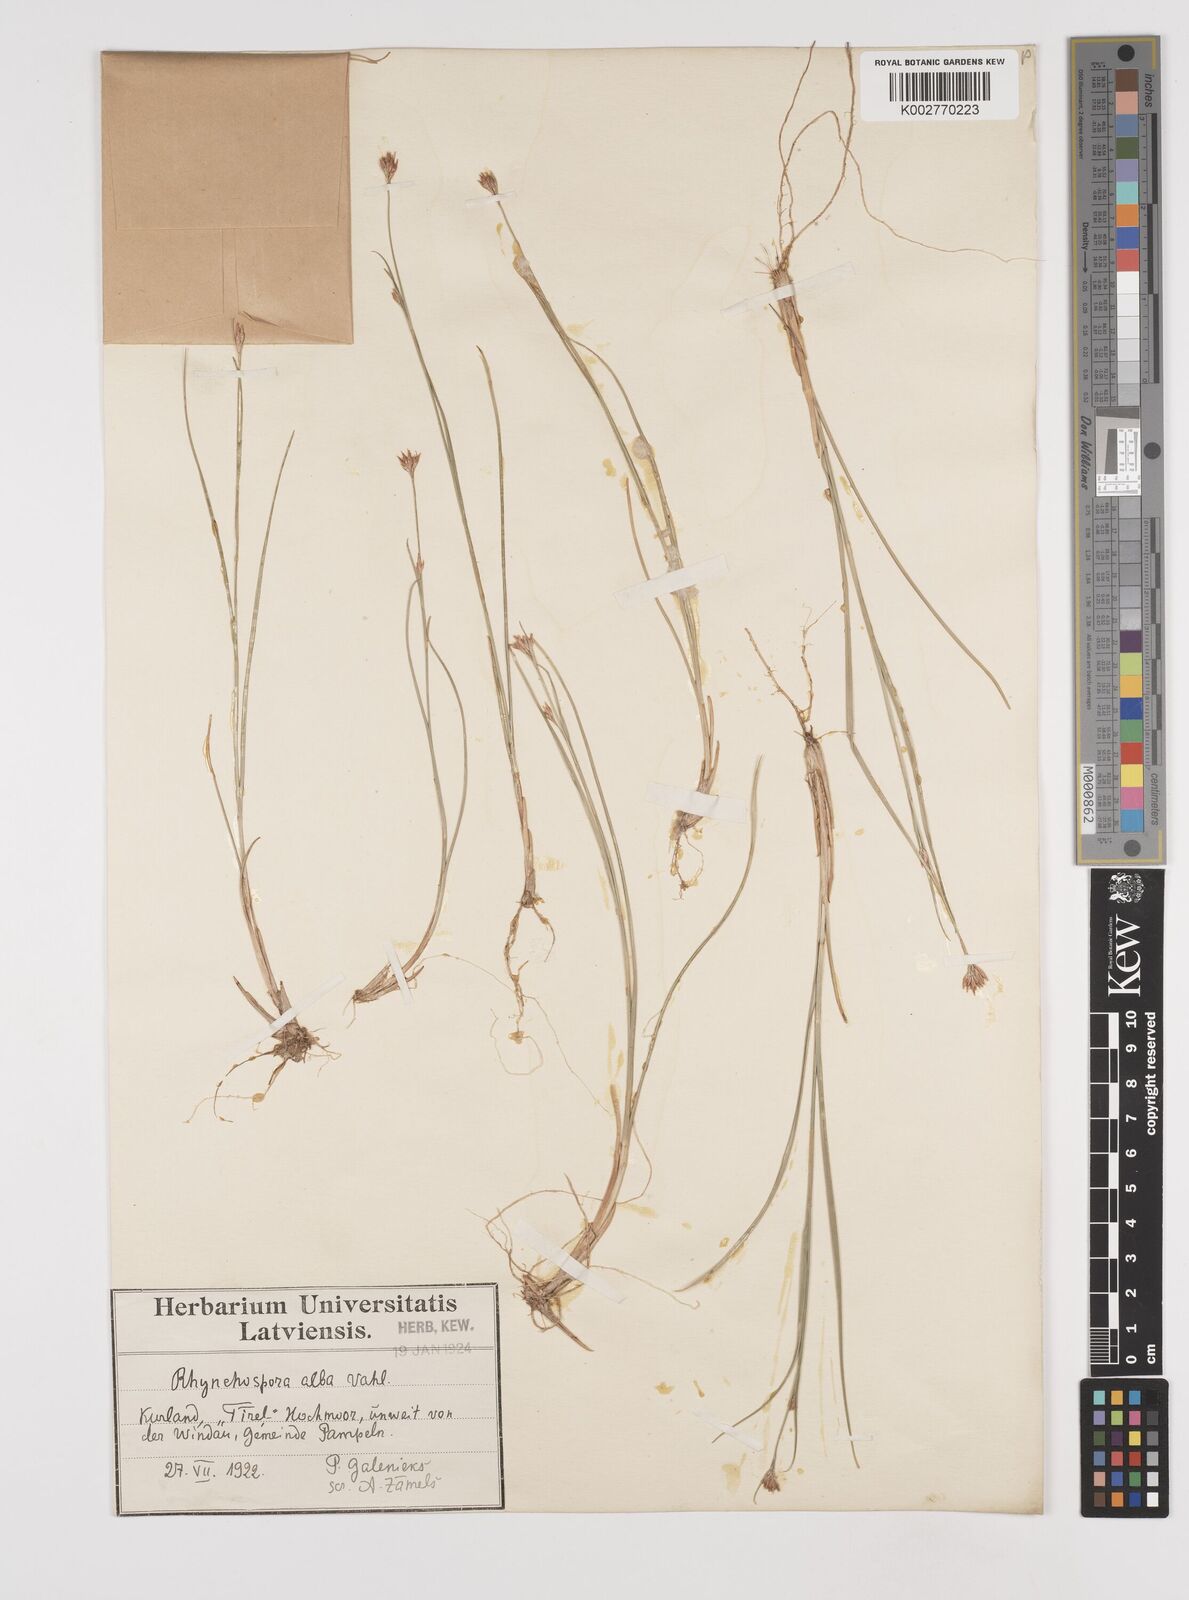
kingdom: Plantae
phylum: Tracheophyta
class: Liliopsida
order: Poales
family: Cyperaceae
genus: Rhynchospora
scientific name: Rhynchospora alba
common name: White beak-sedge
